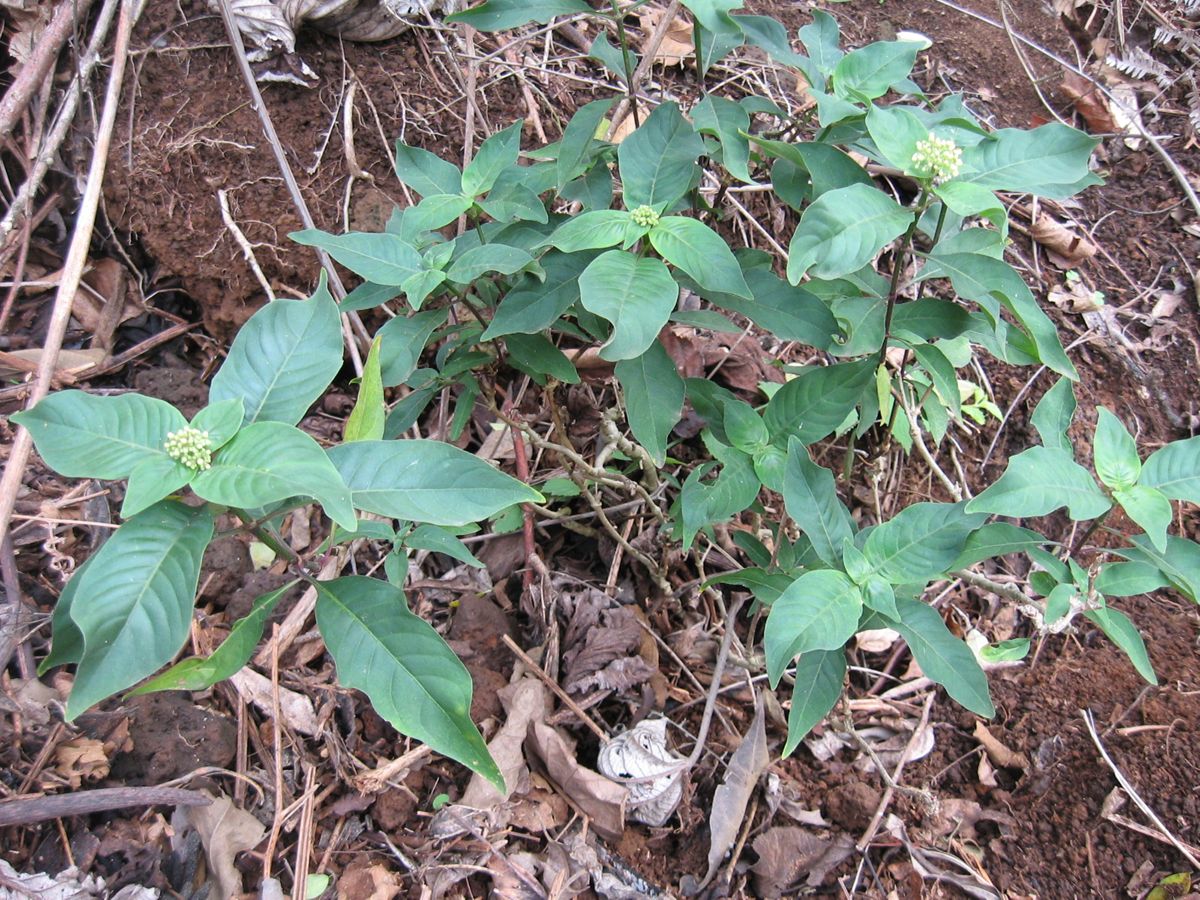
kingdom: Plantae
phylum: Tracheophyta
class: Magnoliopsida
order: Gentianales
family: Rubiaceae
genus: Palicourea
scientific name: Palicourea pubescens
